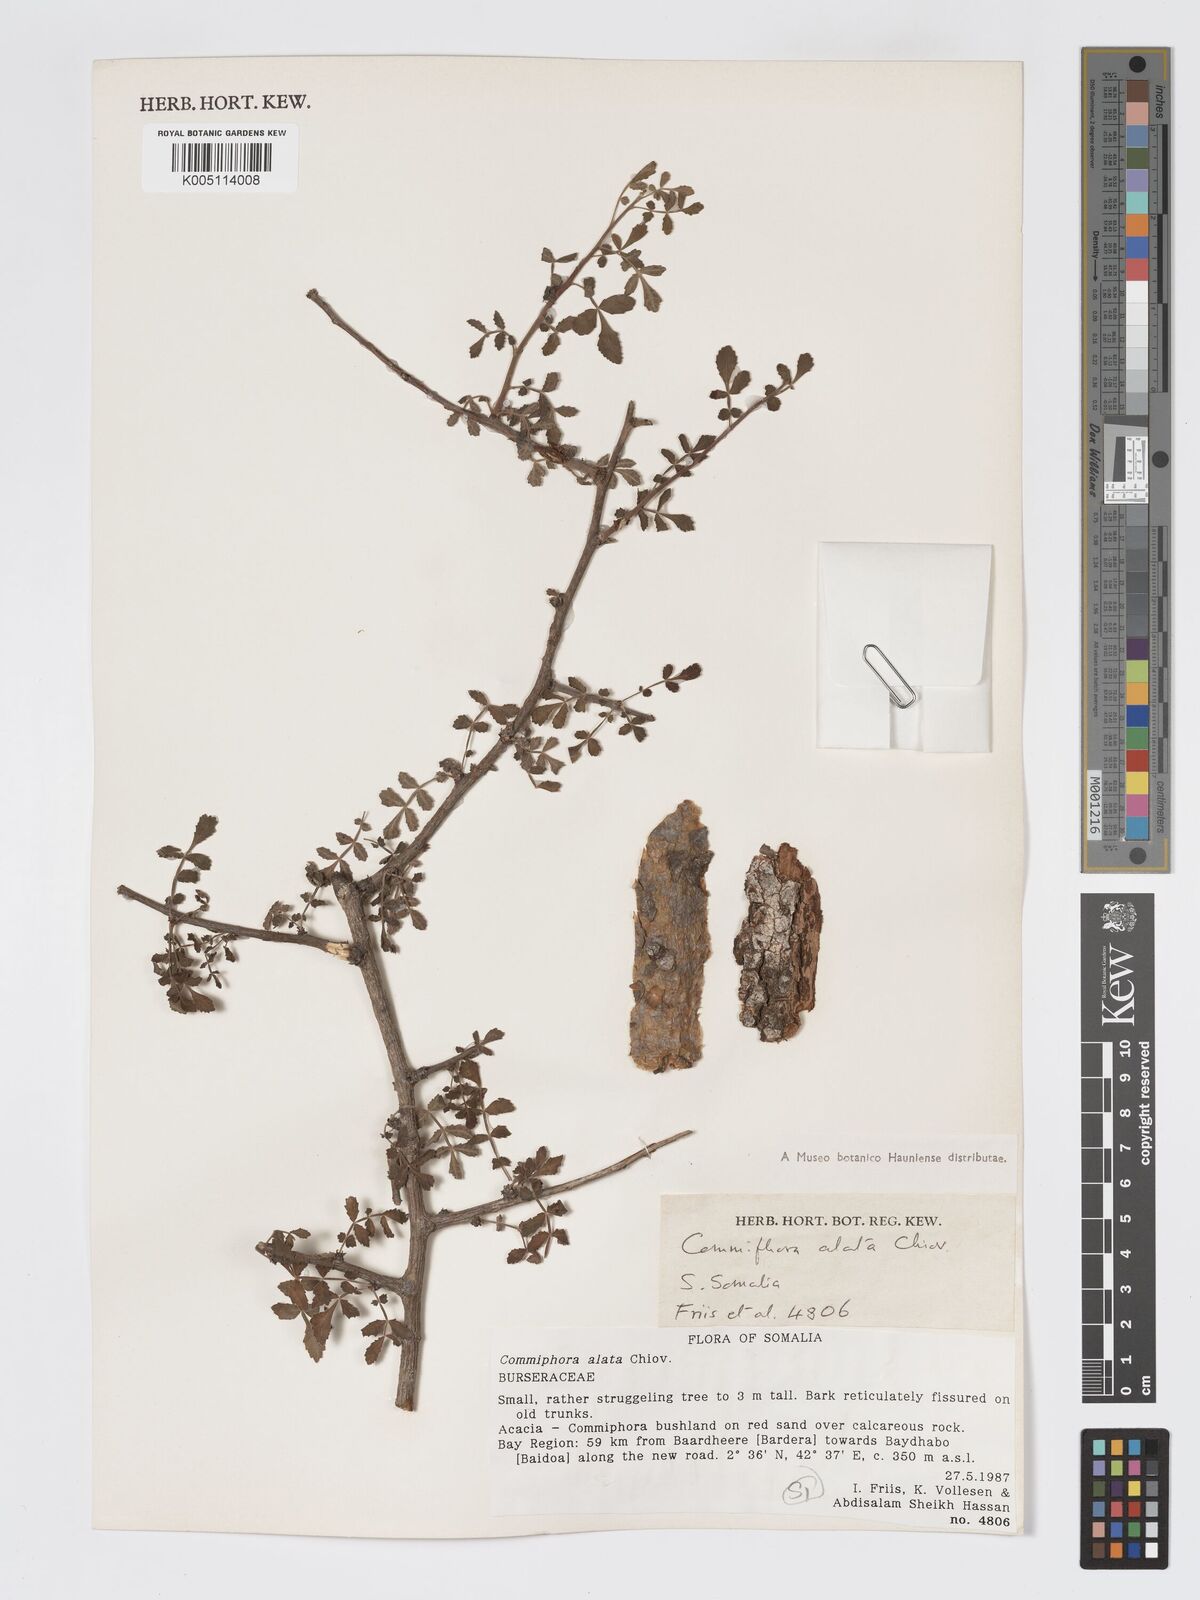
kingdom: Plantae
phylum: Tracheophyta
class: Magnoliopsida
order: Sapindales
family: Burseraceae
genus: Commiphora
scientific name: Commiphora alata
